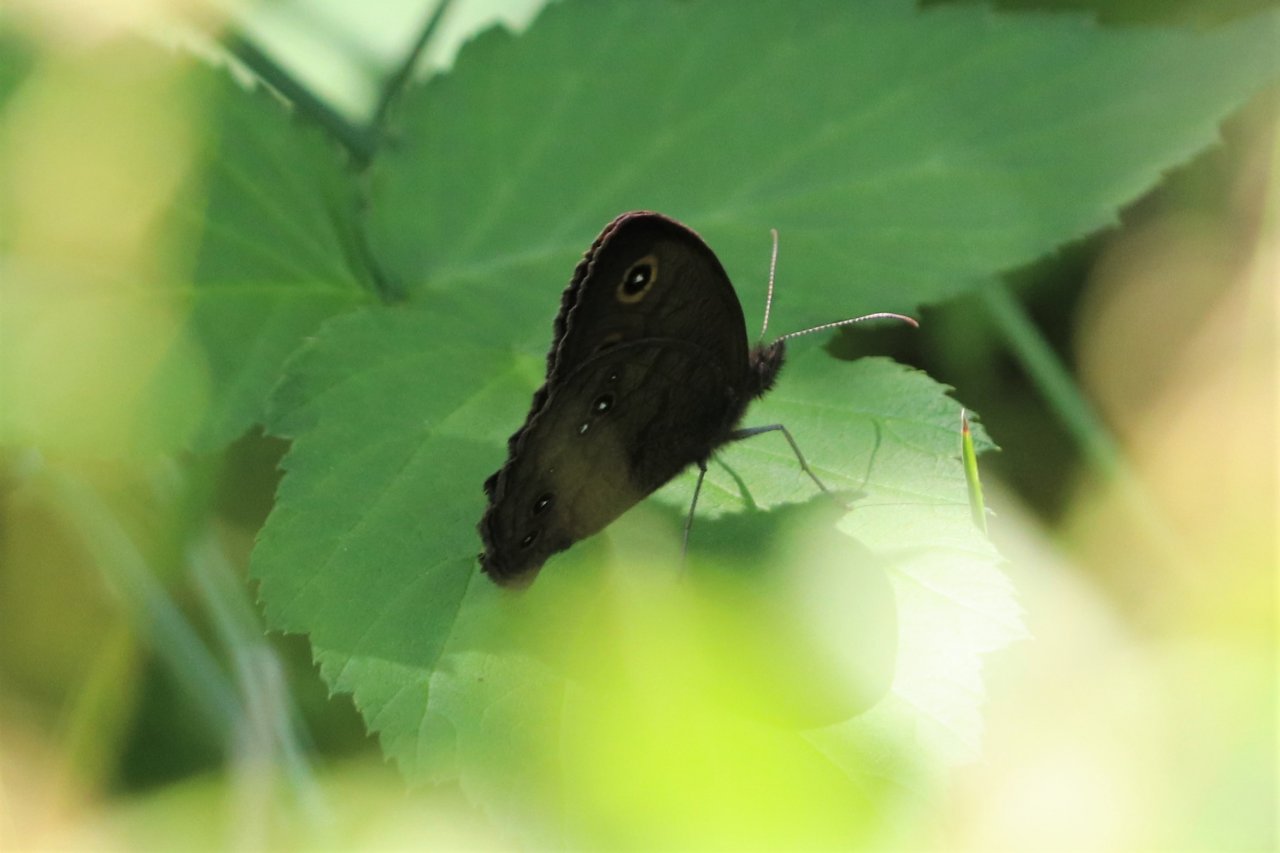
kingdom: Animalia
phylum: Arthropoda
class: Insecta
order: Lepidoptera
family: Nymphalidae
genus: Cercyonis
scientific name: Cercyonis pegala
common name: Common Wood-Nymph
